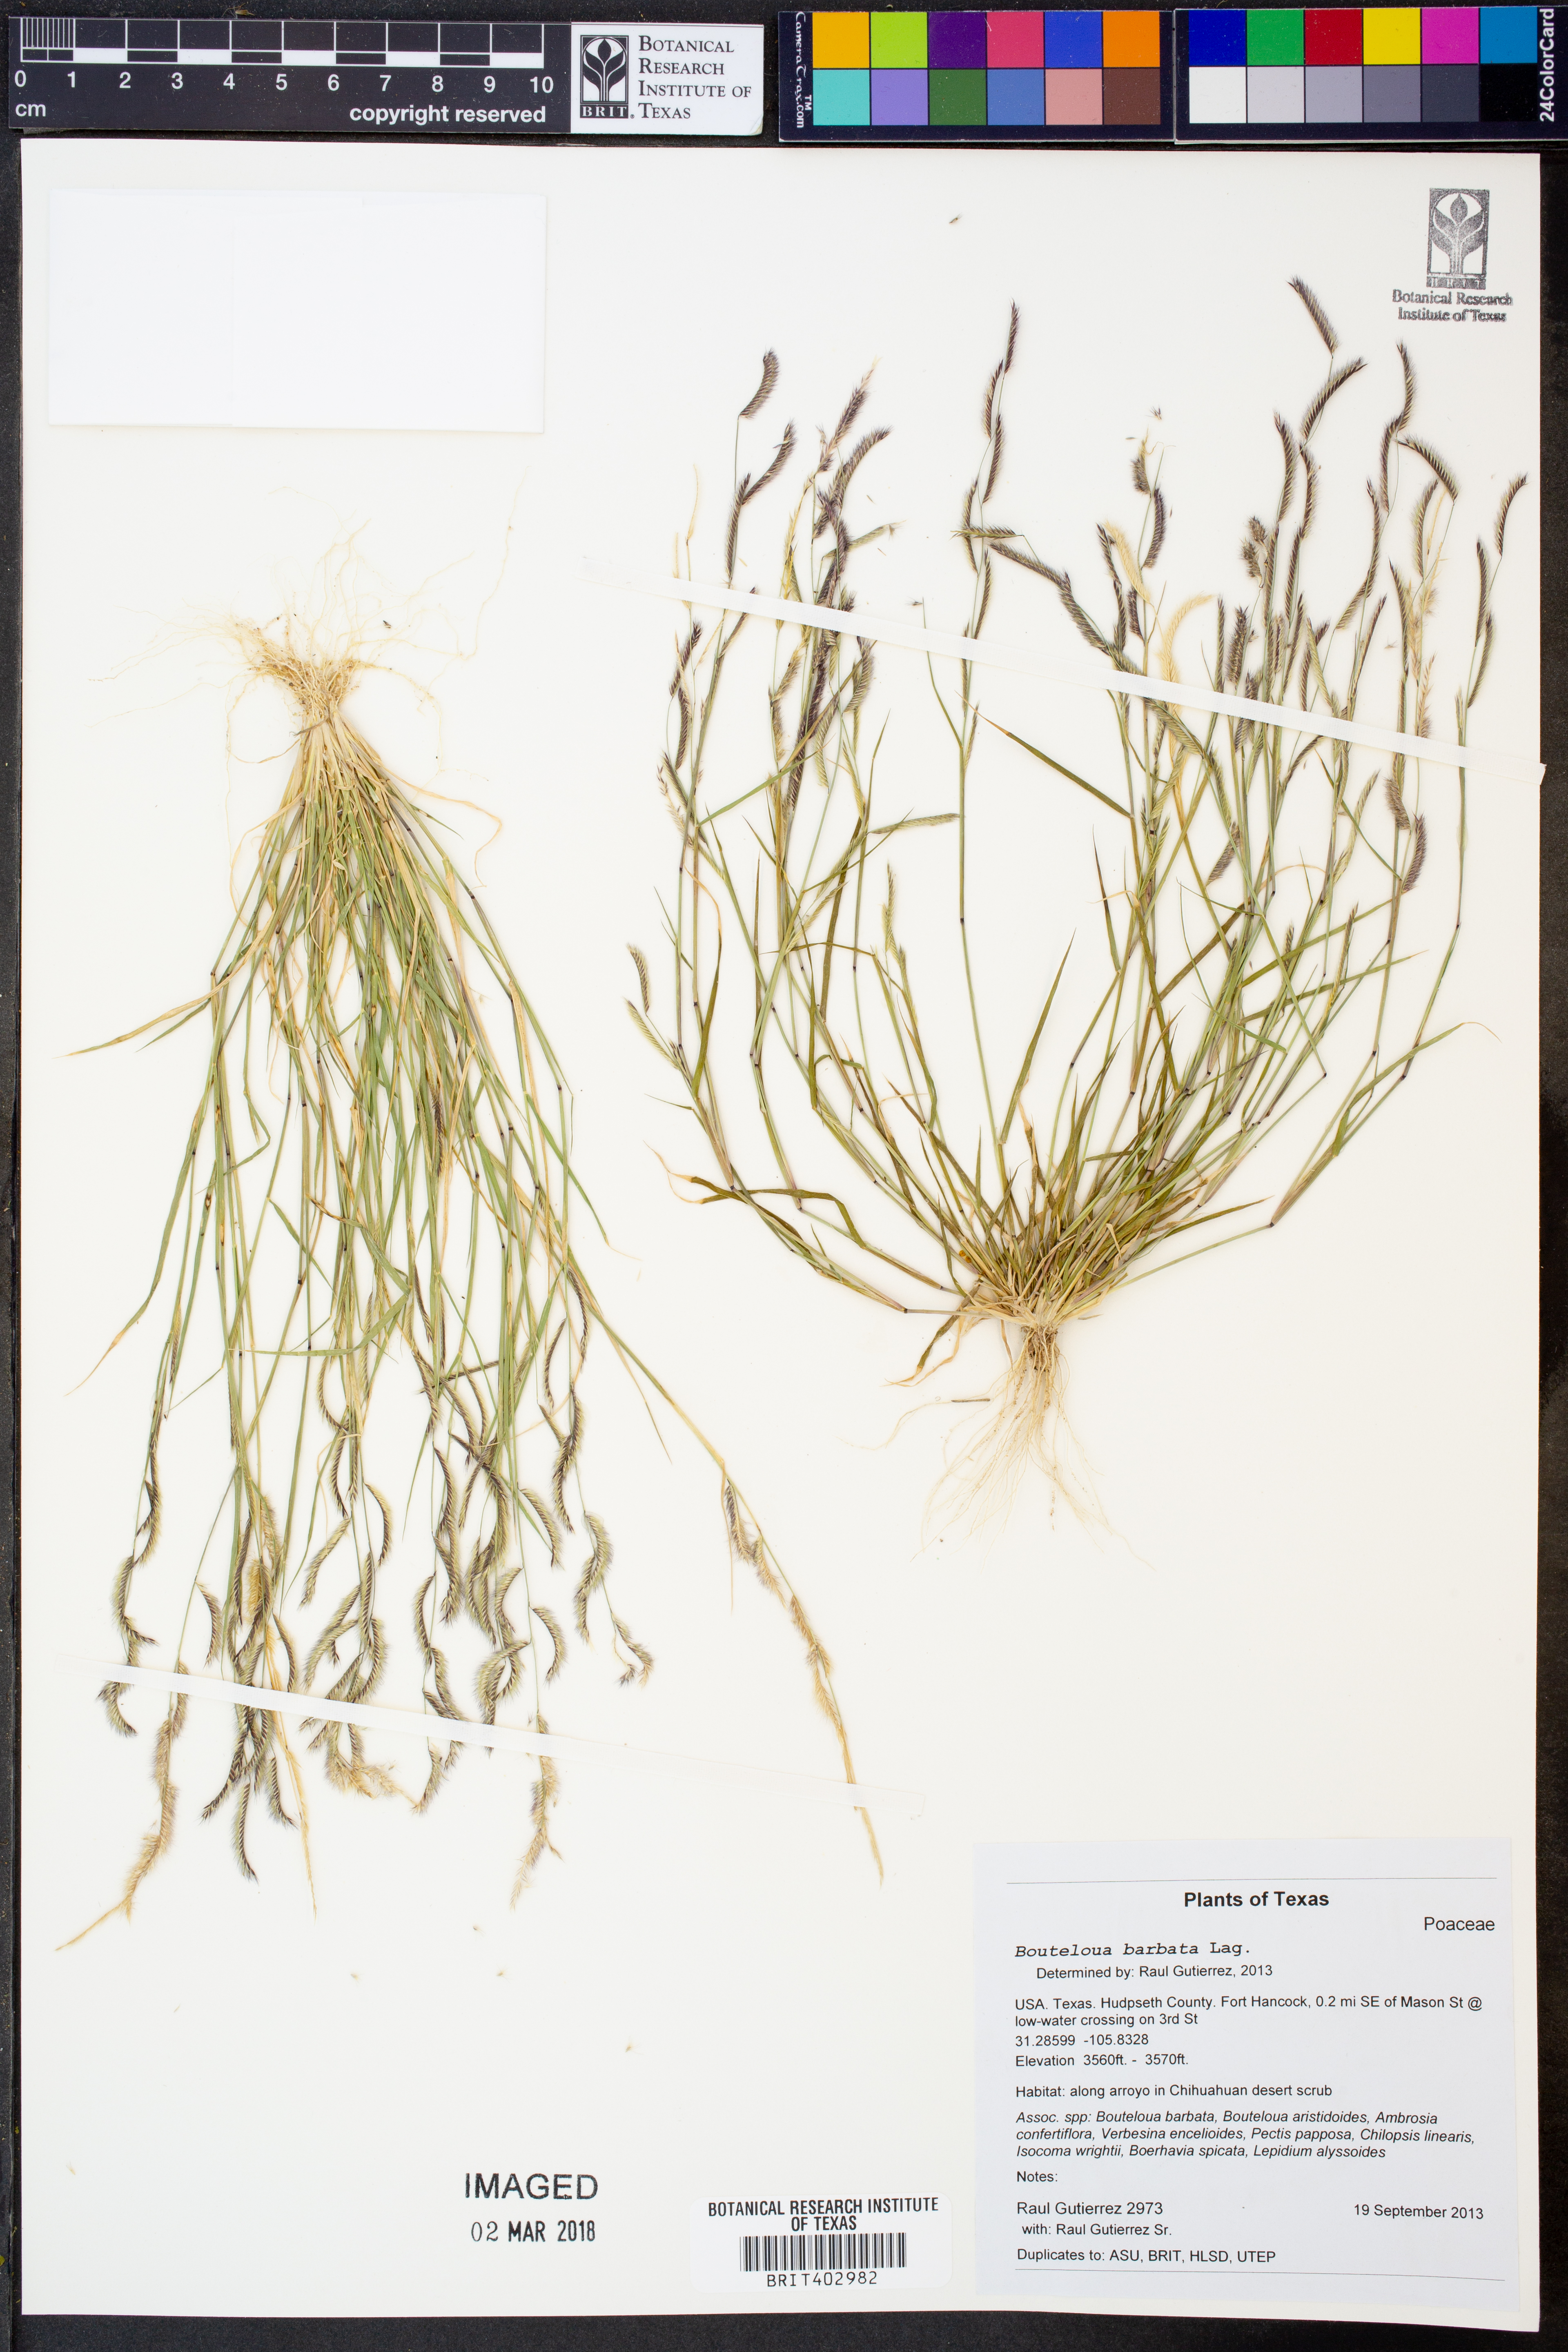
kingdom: Plantae
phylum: Tracheophyta
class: Liliopsida
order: Poales
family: Poaceae
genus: Bouteloua
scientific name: Bouteloua barbata
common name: Six-weeks grama
